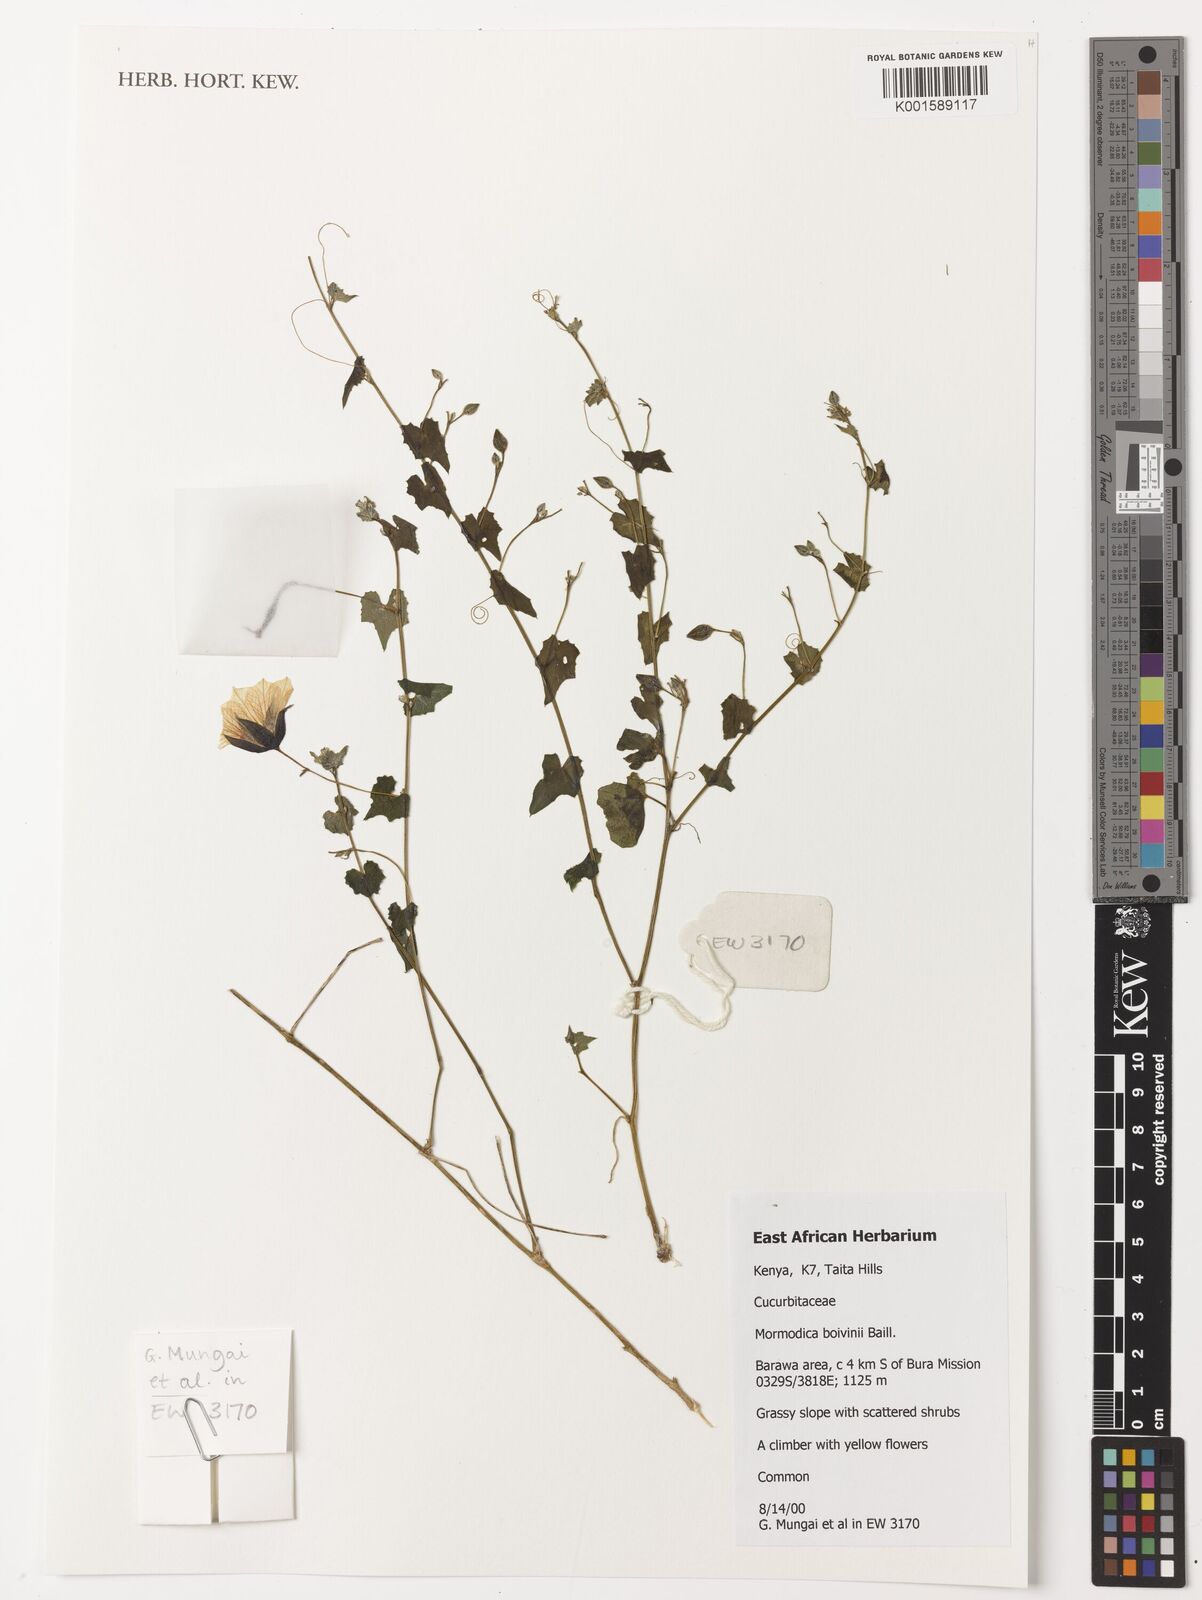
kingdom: Plantae
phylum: Tracheophyta
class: Magnoliopsida
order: Cucurbitales
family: Cucurbitaceae
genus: Momordica
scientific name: Momordica boivinii
